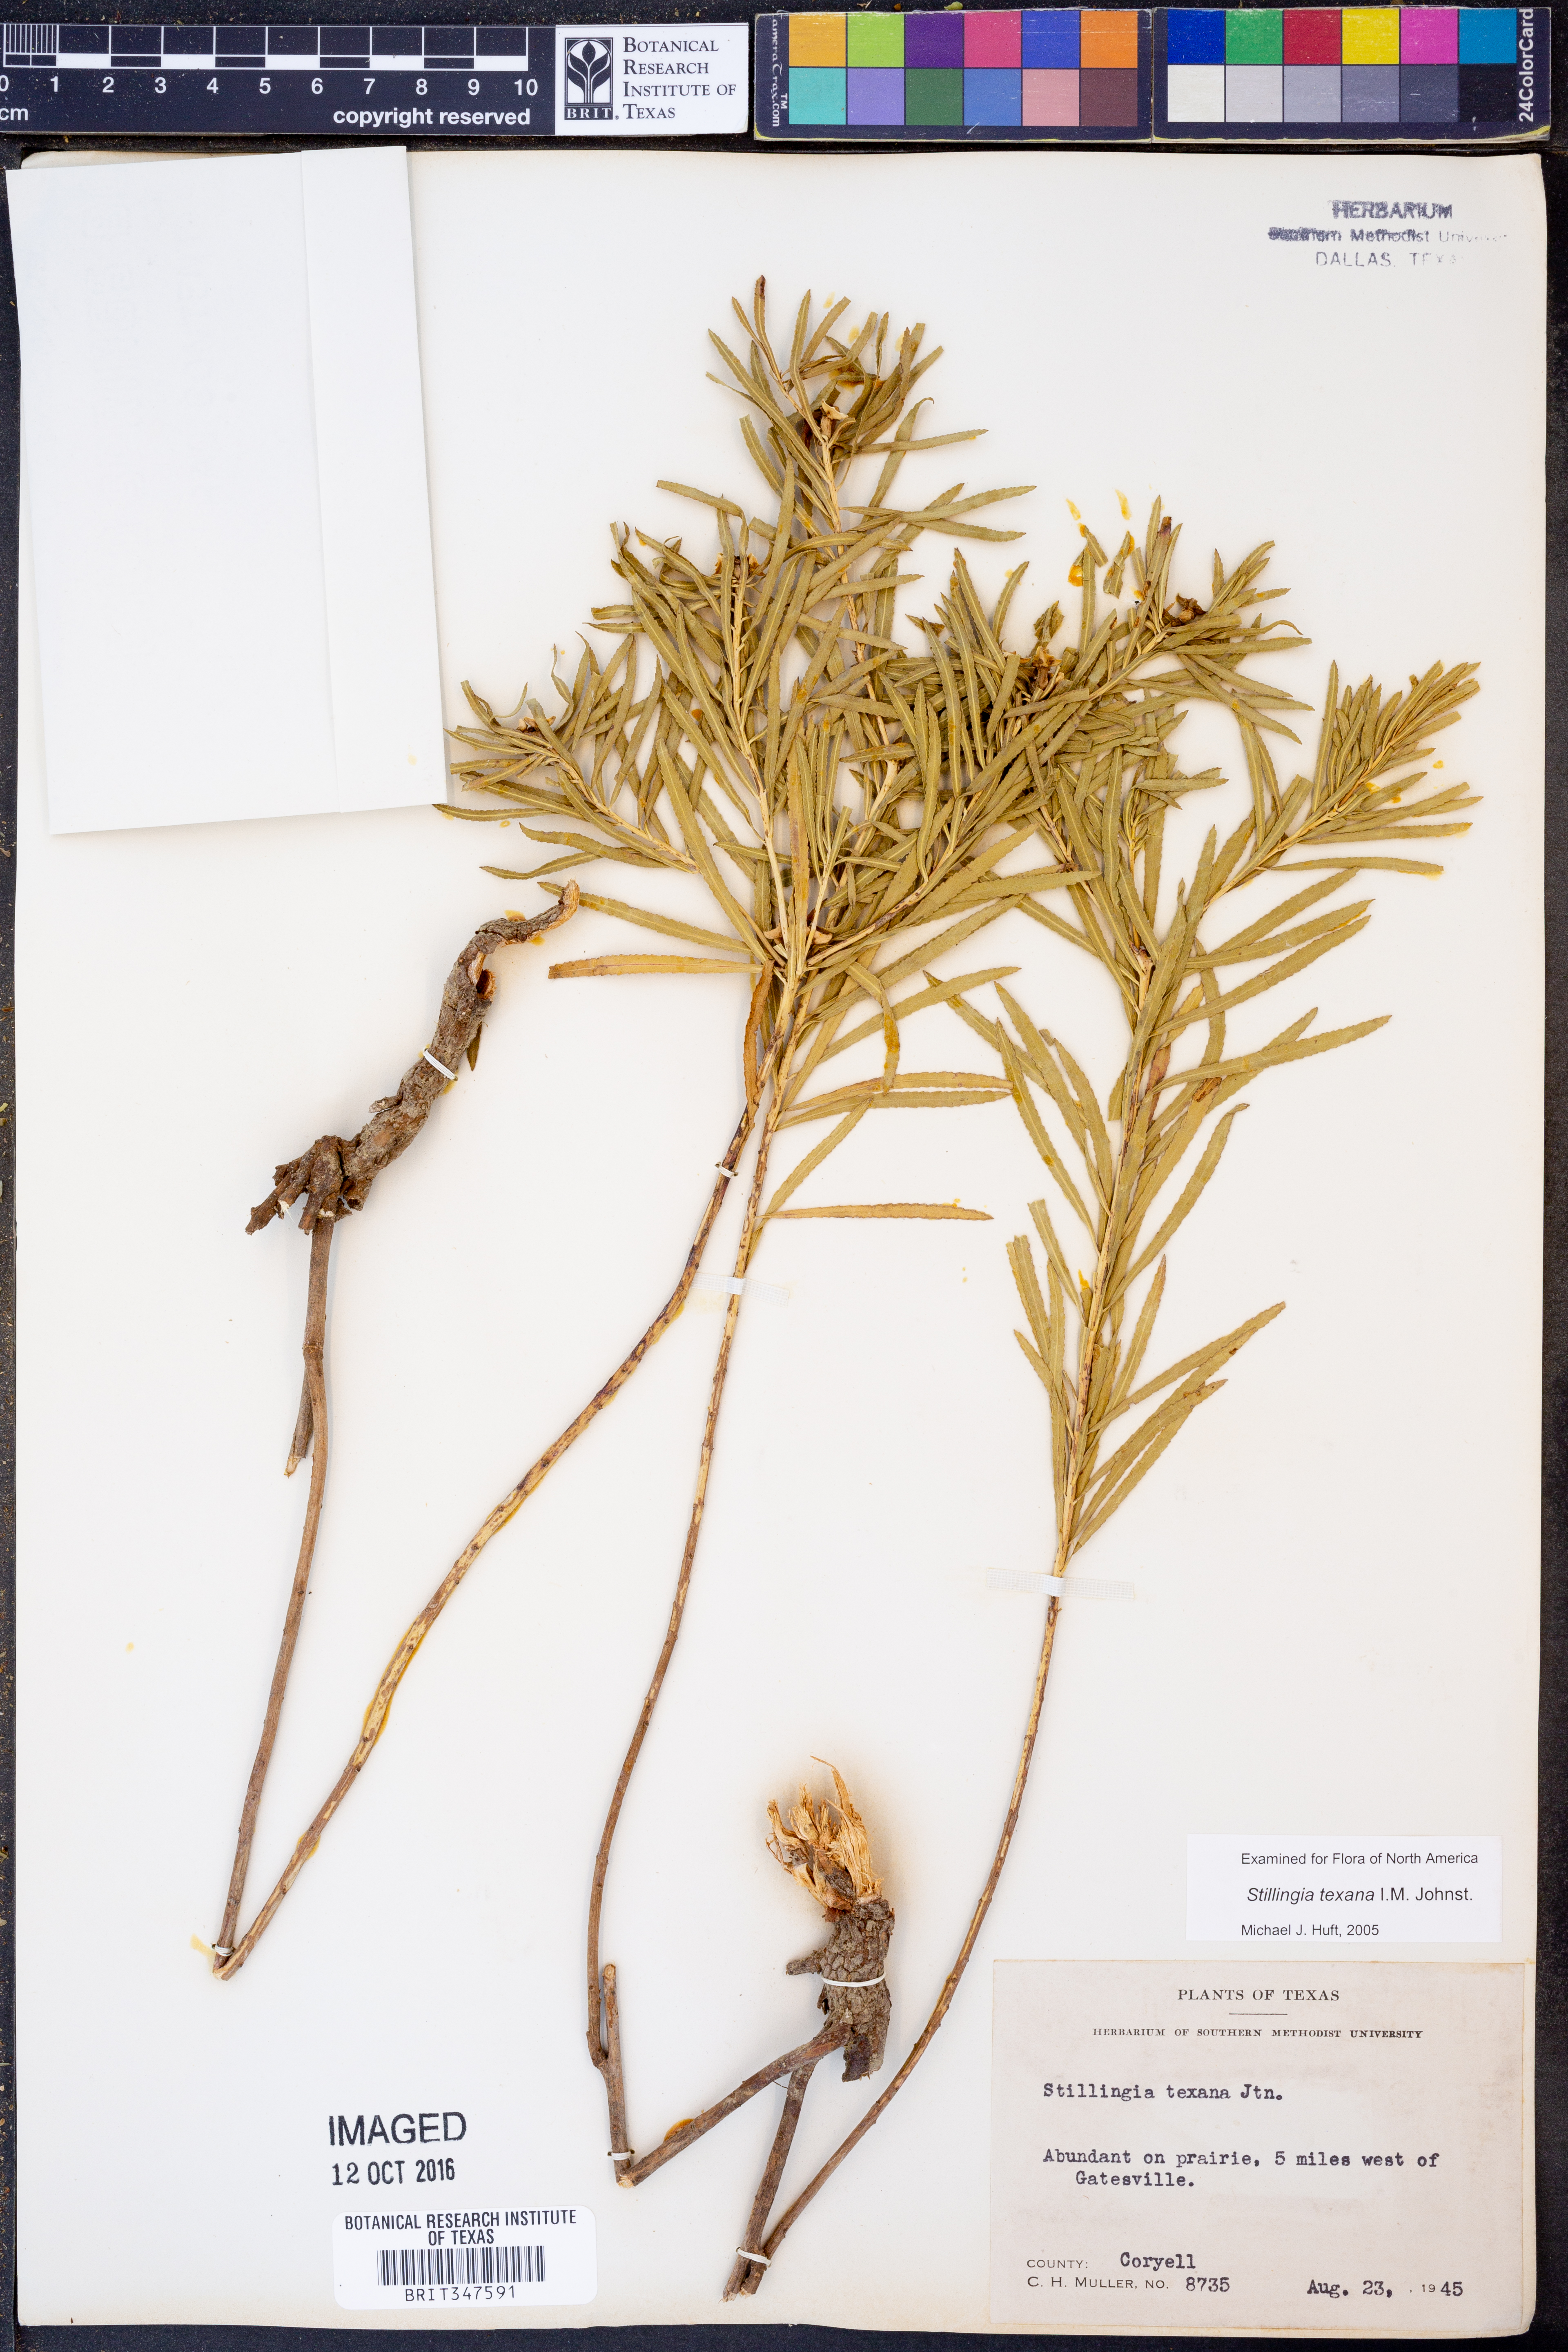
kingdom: Plantae
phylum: Tracheophyta
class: Magnoliopsida
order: Malpighiales
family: Euphorbiaceae
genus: Stillingia
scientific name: Stillingia texana
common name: Texas stillingia
